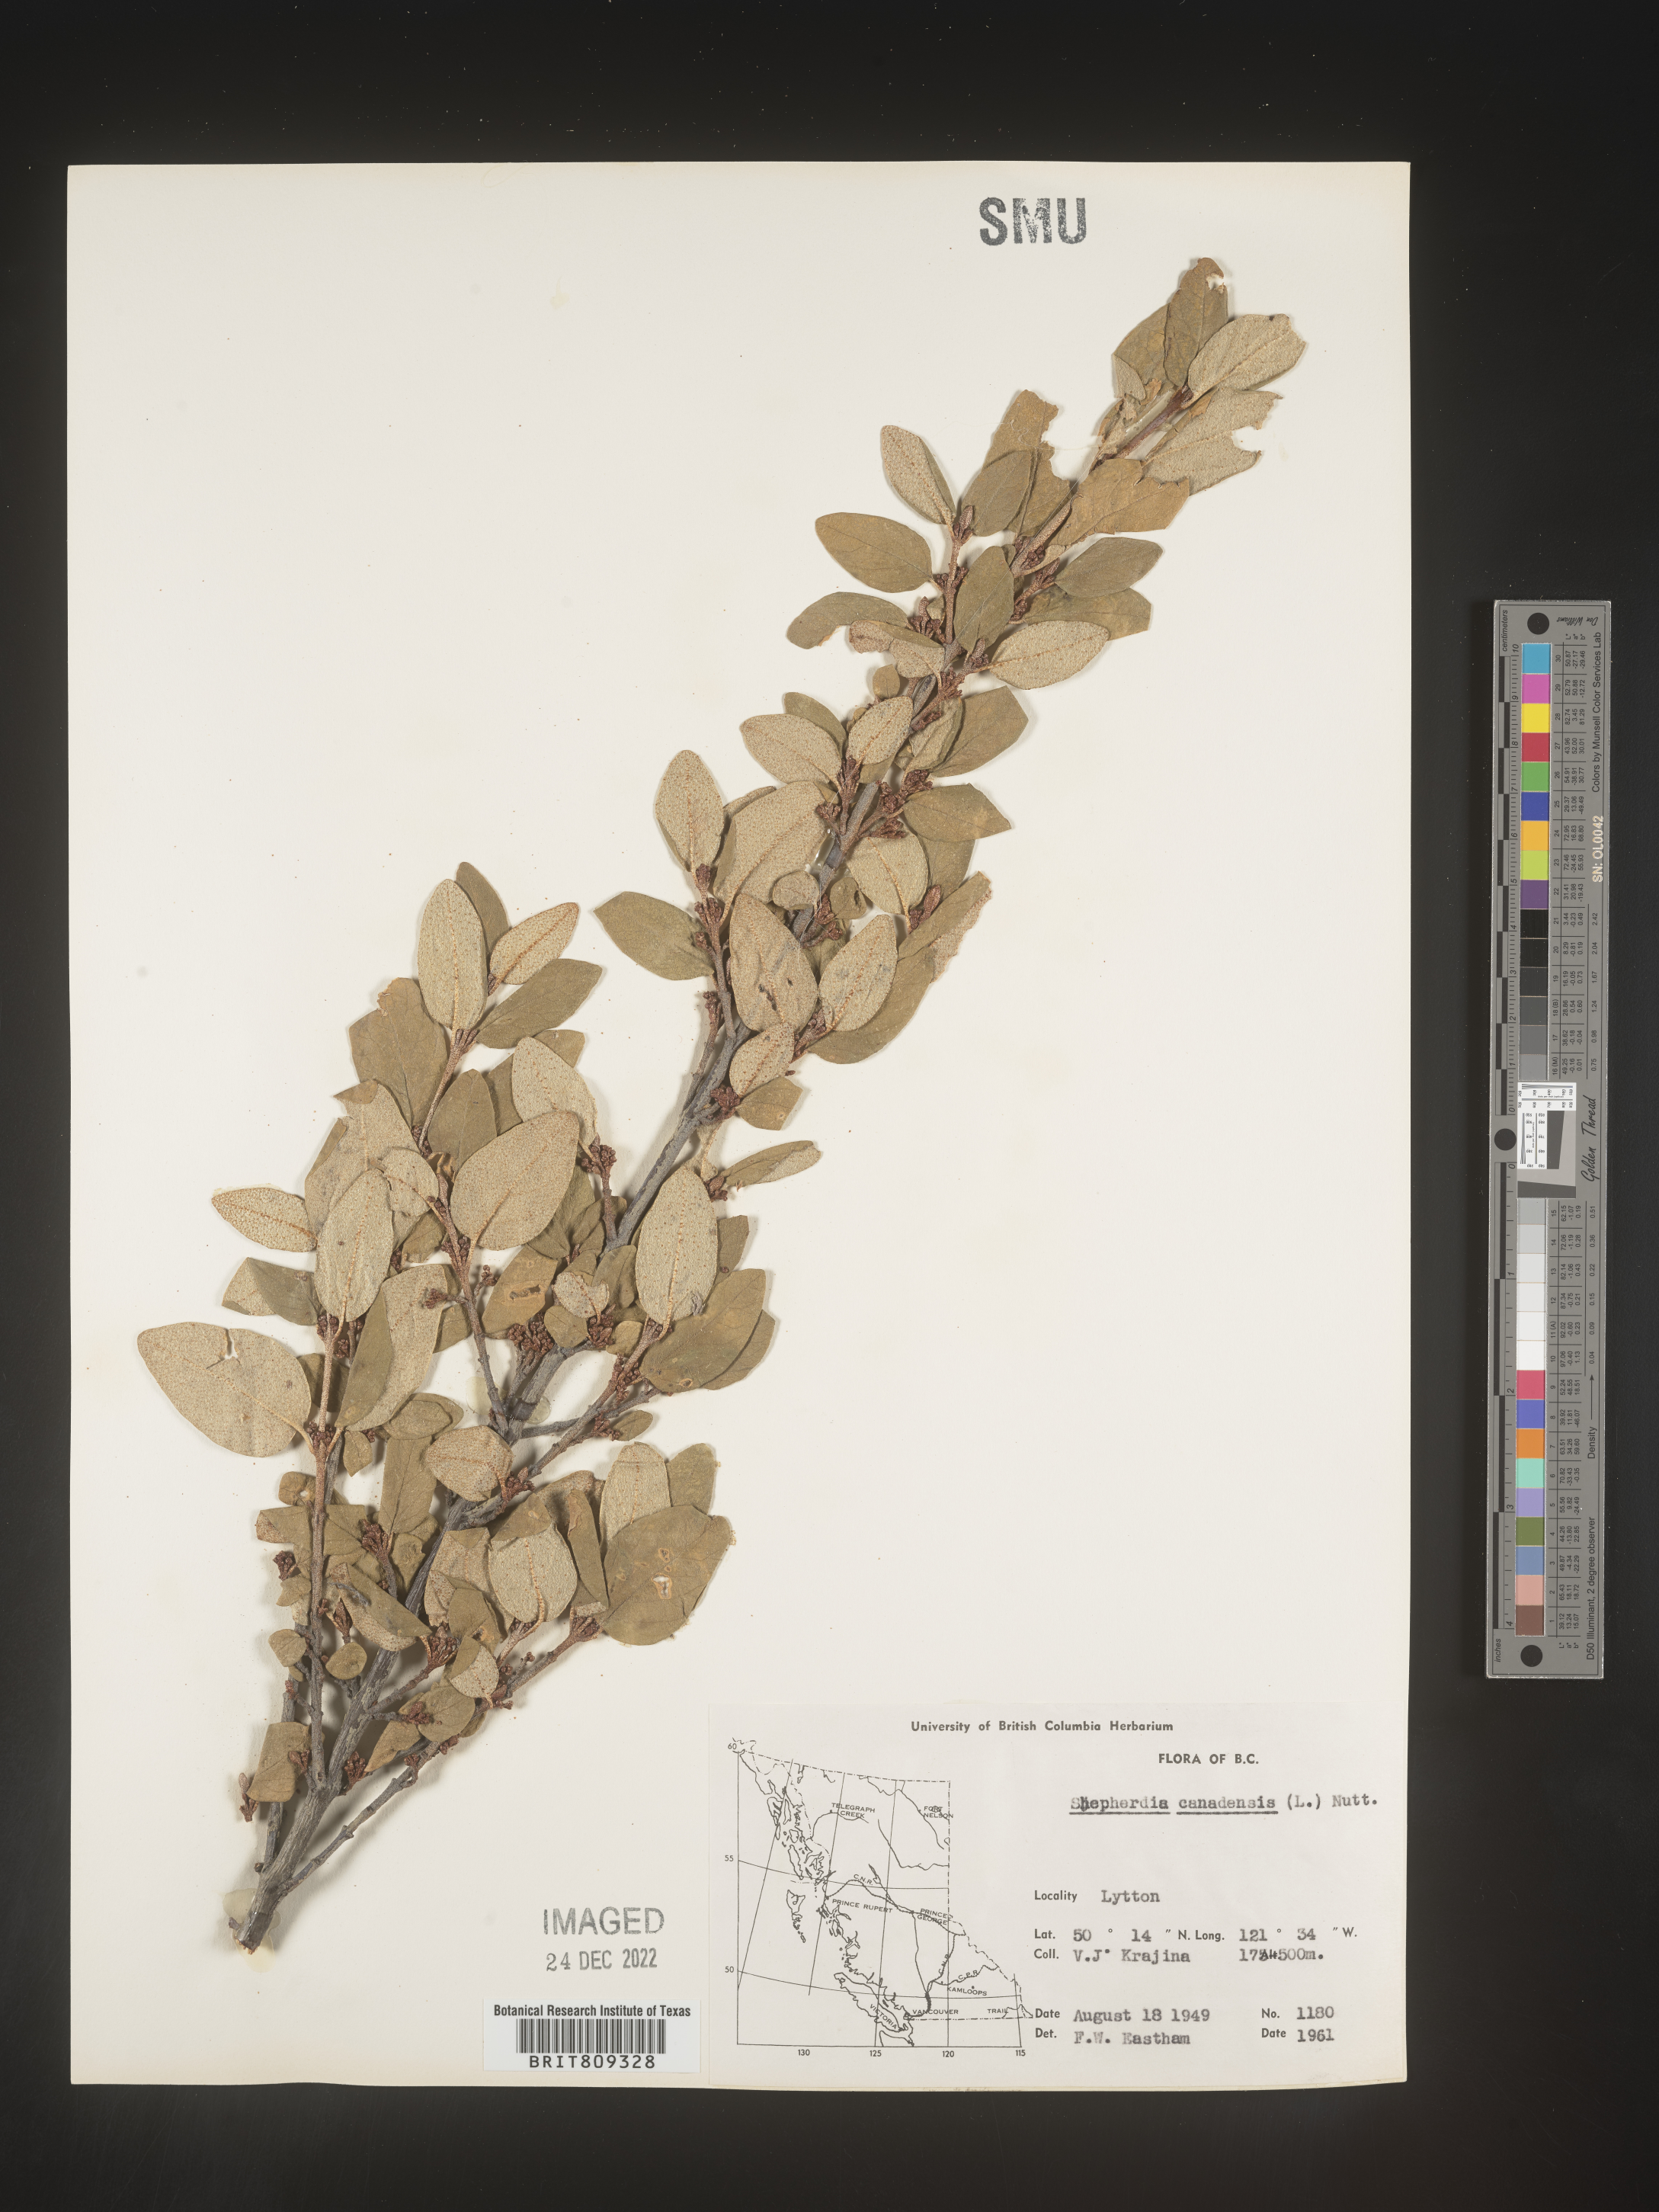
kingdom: Plantae
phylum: Tracheophyta
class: Magnoliopsida
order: Rosales
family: Elaeagnaceae
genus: Shepherdia
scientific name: Shepherdia canadensis
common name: Soapberry
